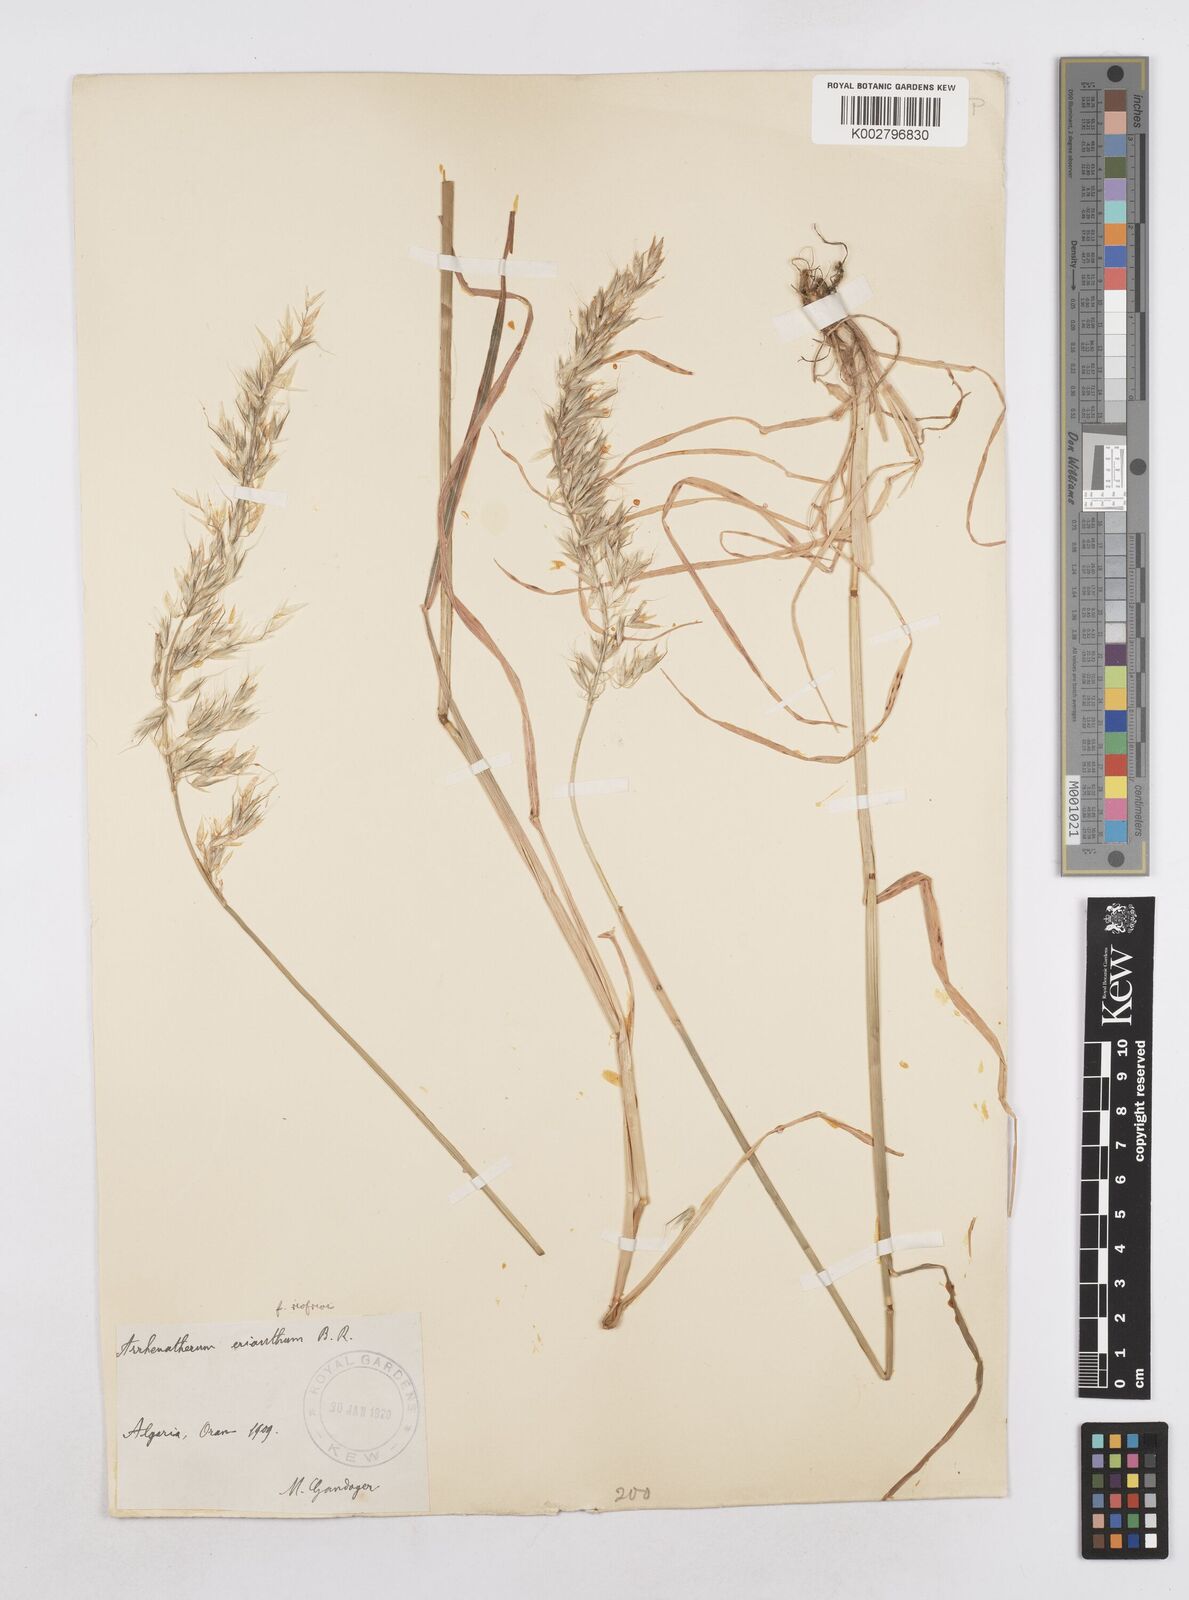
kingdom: Plantae
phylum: Tracheophyta
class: Liliopsida
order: Poales
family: Poaceae
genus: Arrhenatherum
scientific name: Arrhenatherum
